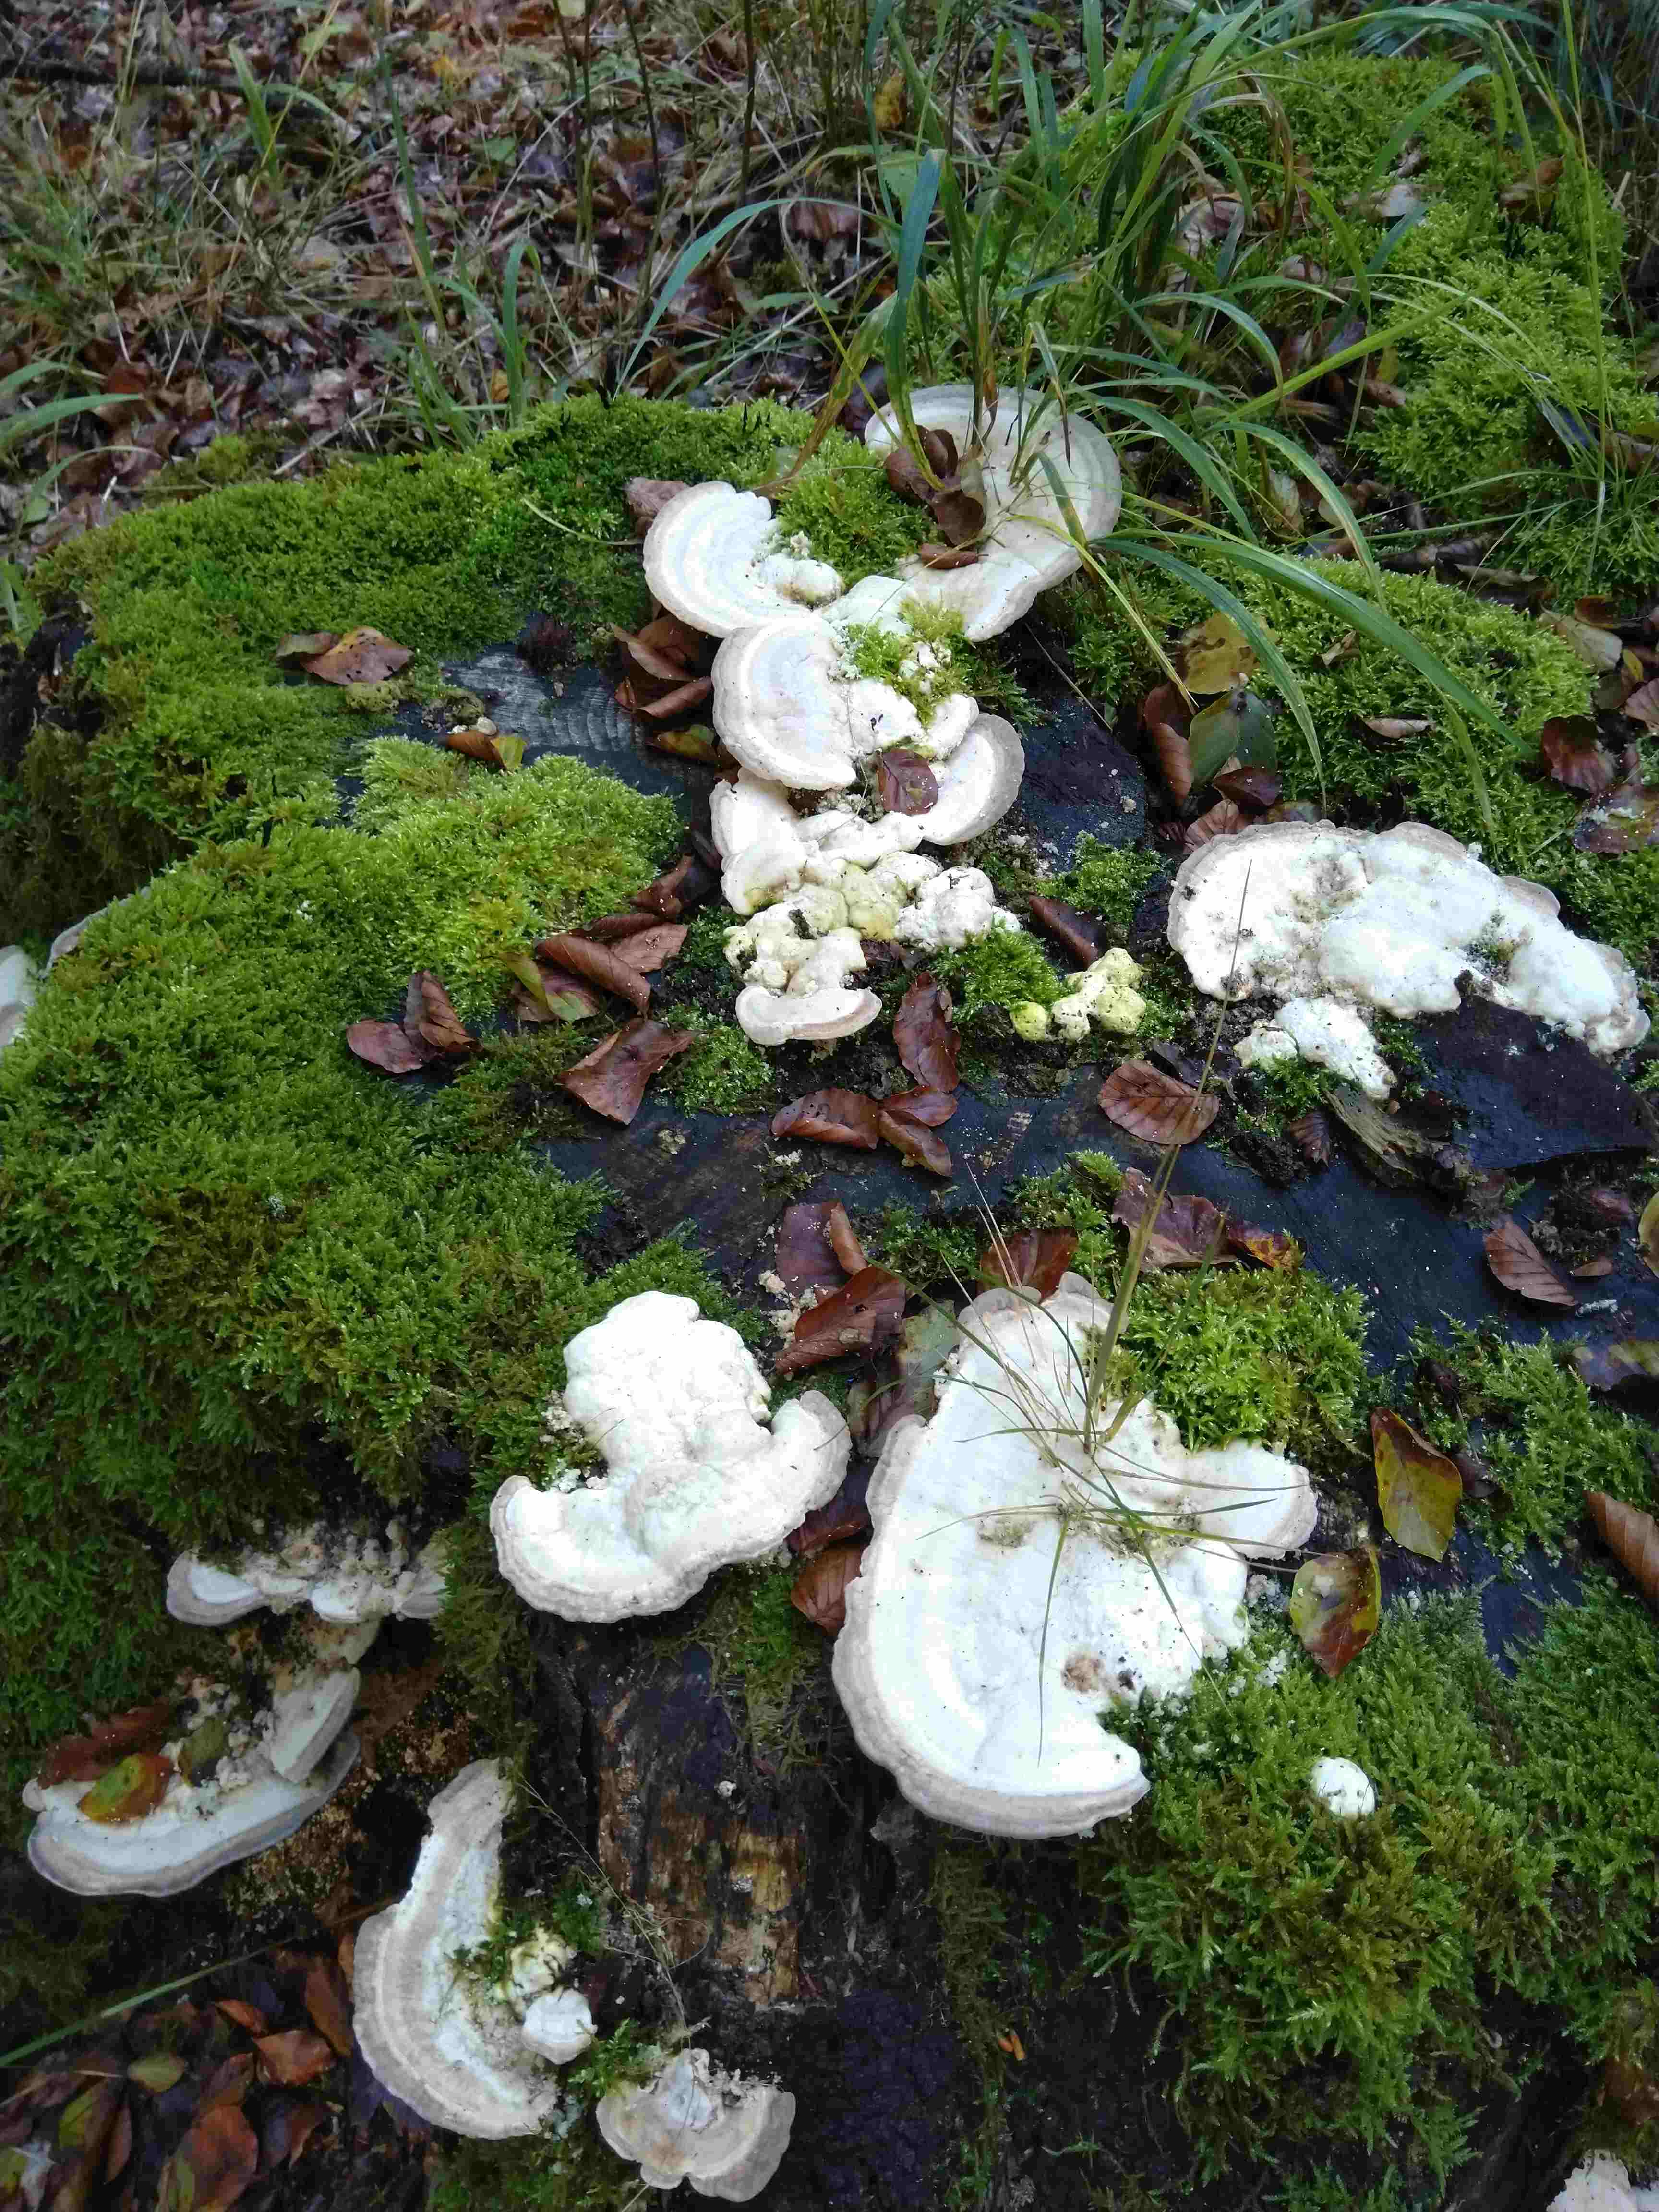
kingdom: Fungi
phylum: Basidiomycota
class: Agaricomycetes
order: Polyporales
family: Polyporaceae
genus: Trametes
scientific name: Trametes gibbosa
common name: puklet læderporesvamp
